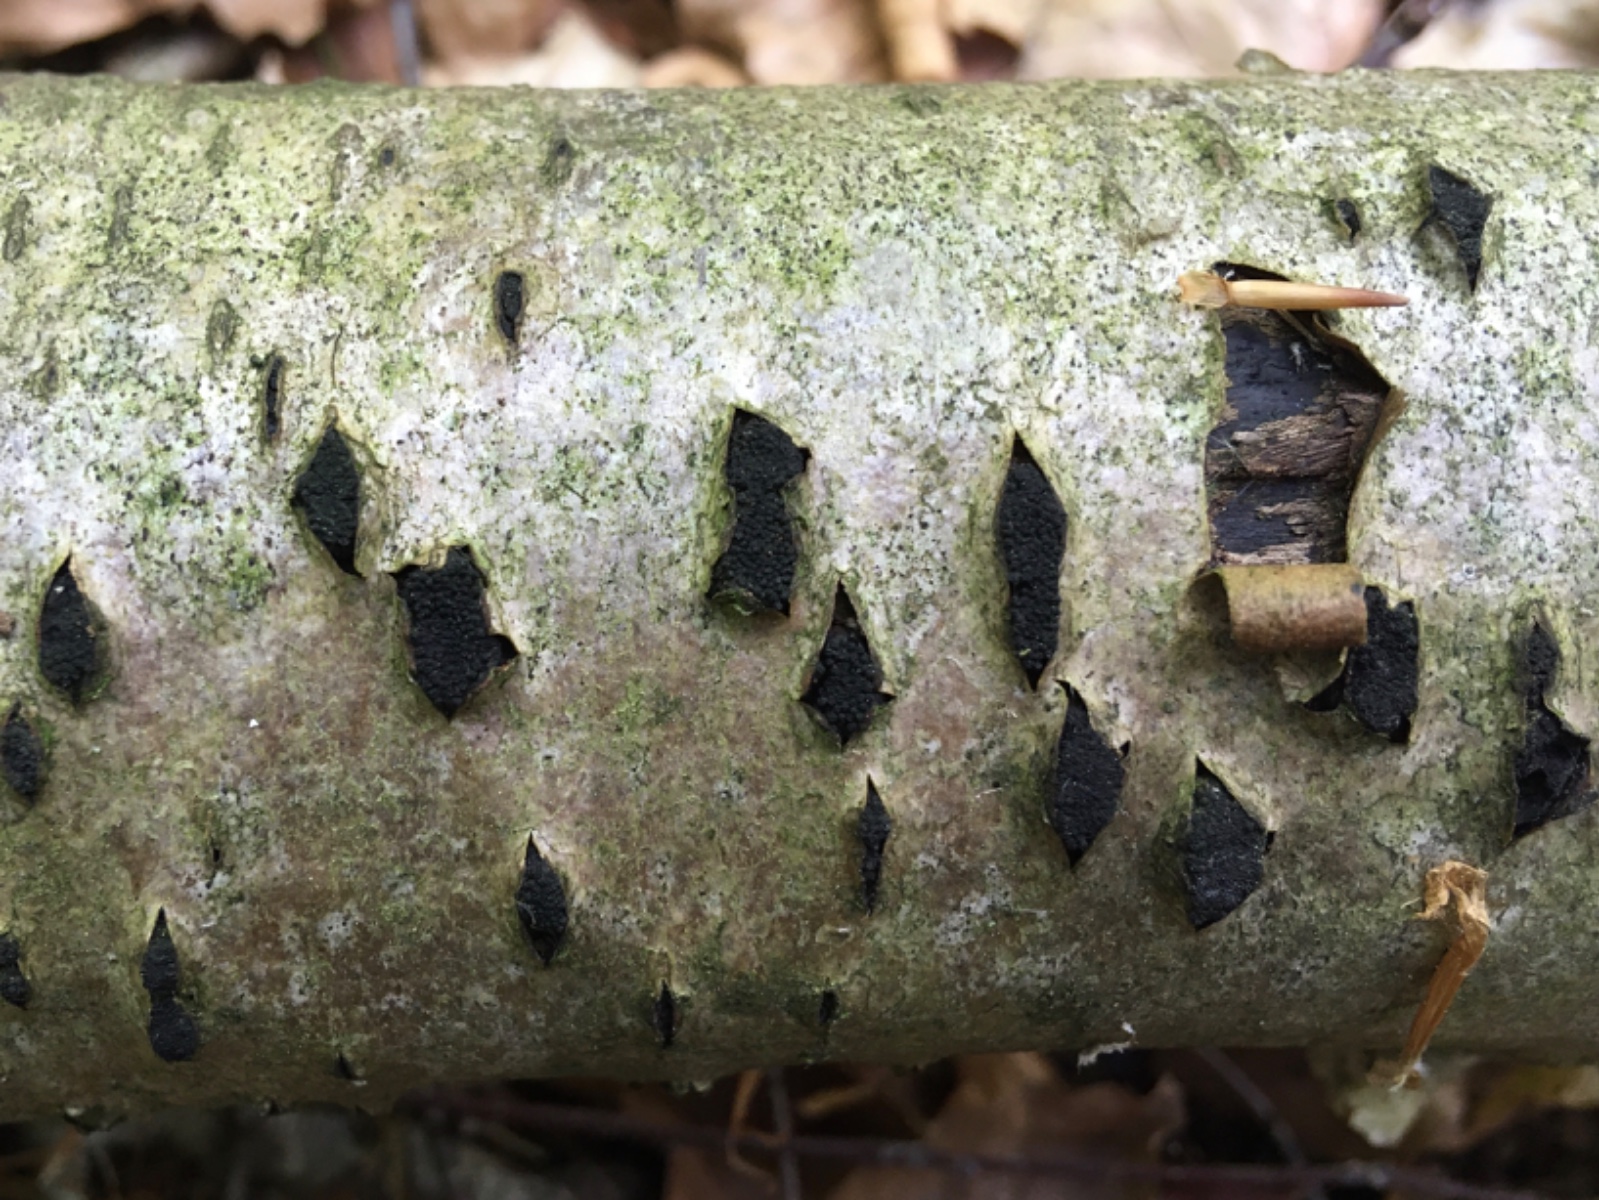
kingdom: Fungi
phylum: Ascomycota
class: Sordariomycetes
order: Xylariales
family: Diatrypaceae
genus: Eutypella
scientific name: Eutypella sorbi
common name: rønne-kulskorpe
